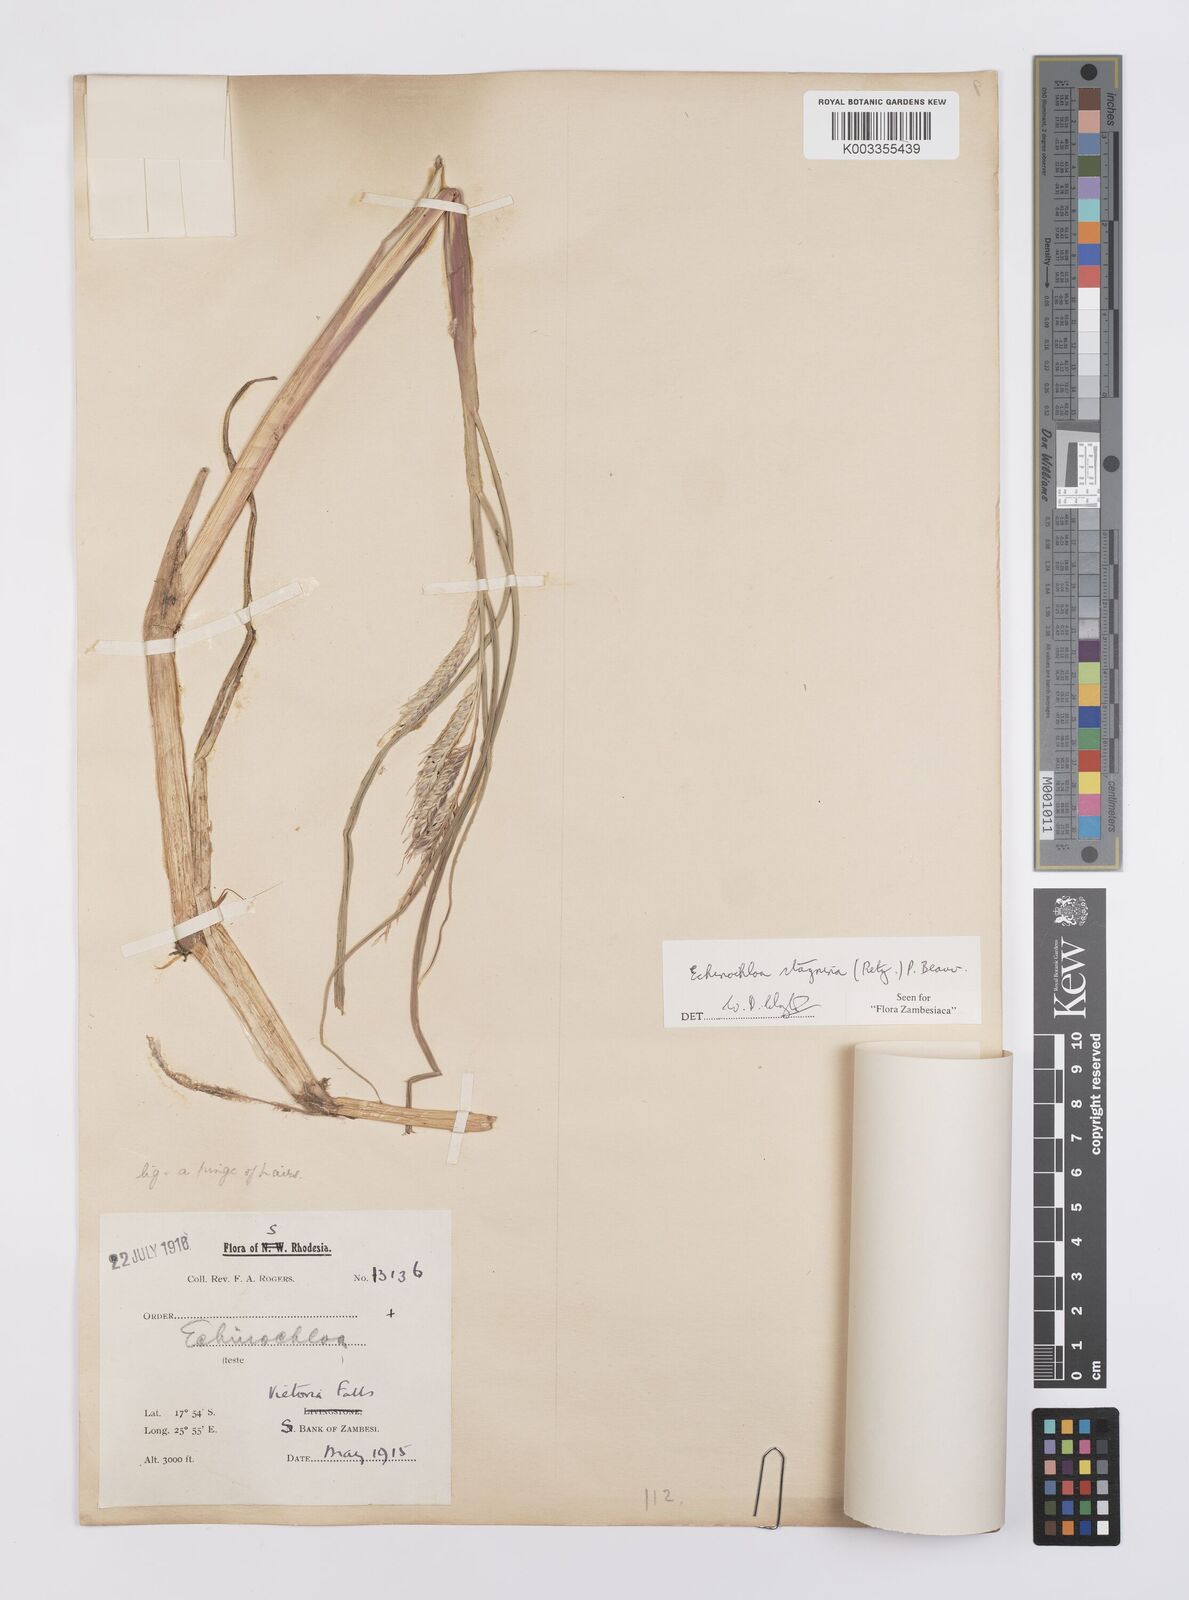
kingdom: Plantae
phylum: Tracheophyta
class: Liliopsida
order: Poales
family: Poaceae
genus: Echinochloa
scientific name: Echinochloa stagnina
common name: Burgu grass
